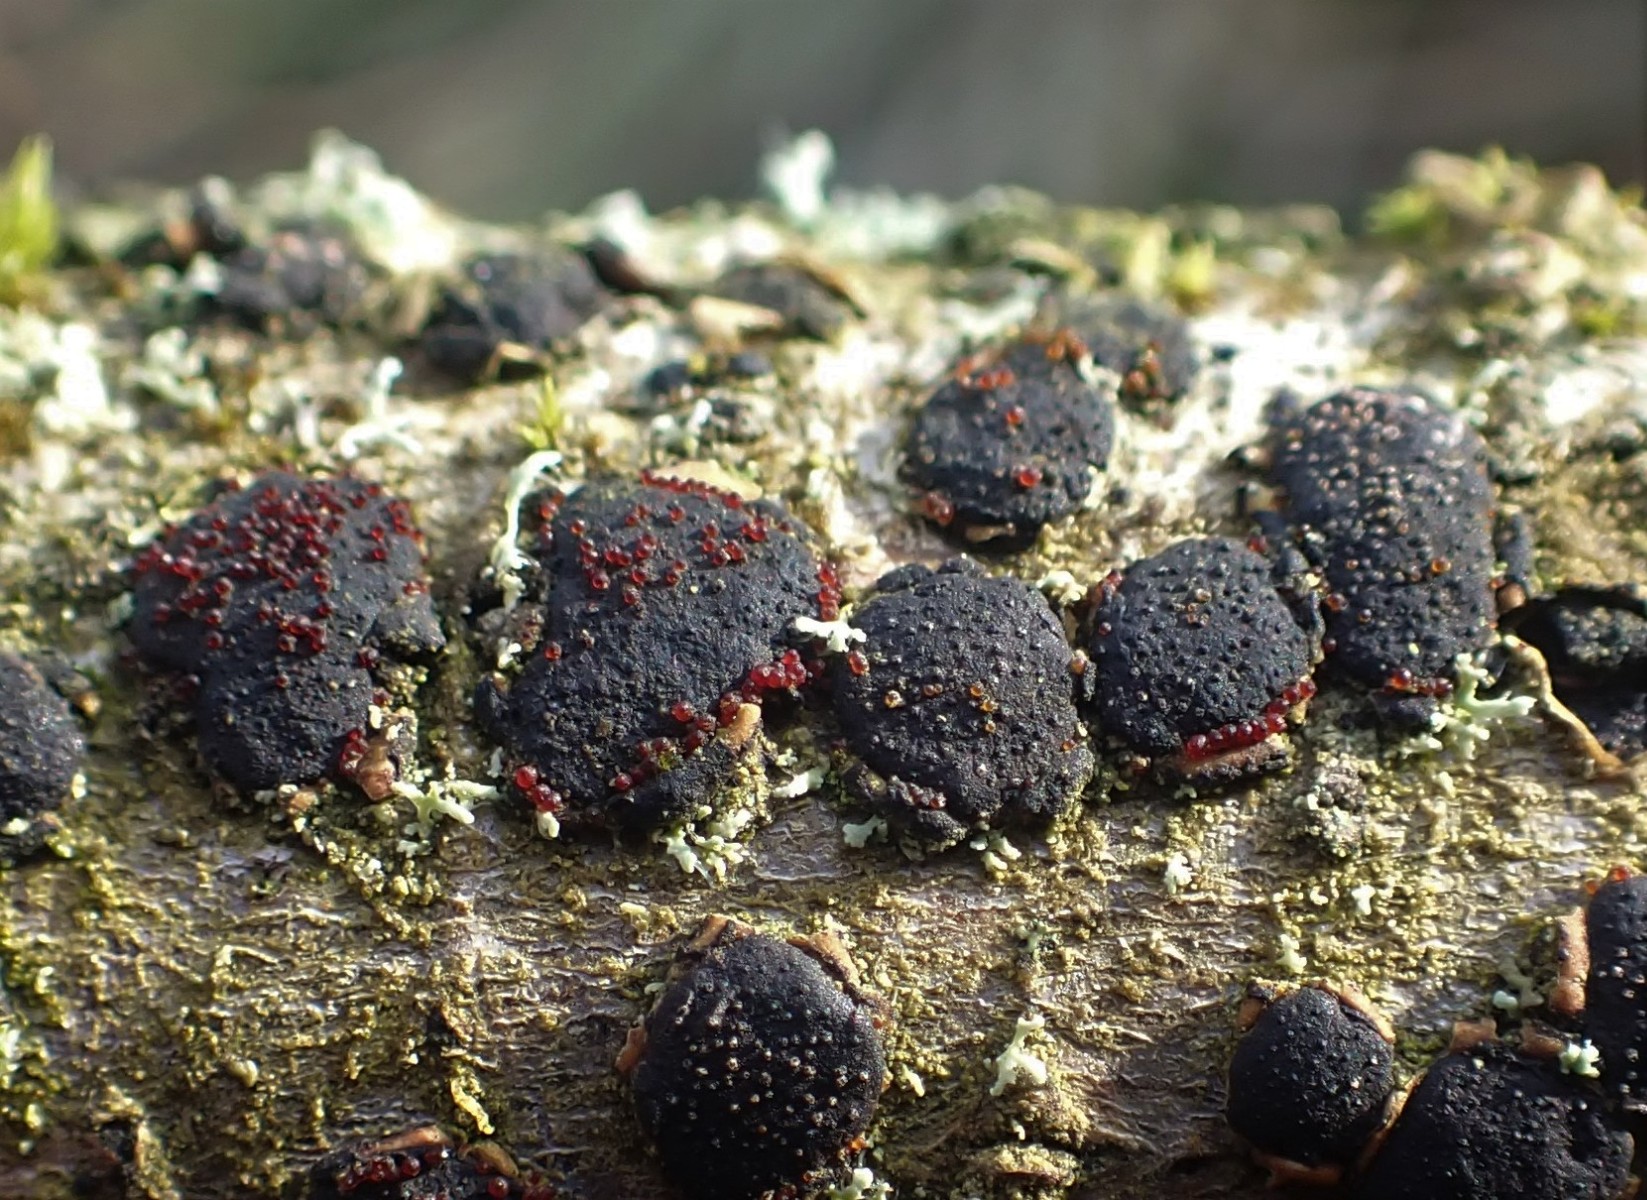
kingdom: Fungi
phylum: Ascomycota
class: Sordariomycetes
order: Hypocreales
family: Nectriaceae
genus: Dialonectria
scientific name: Dialonectria diatrypicola
